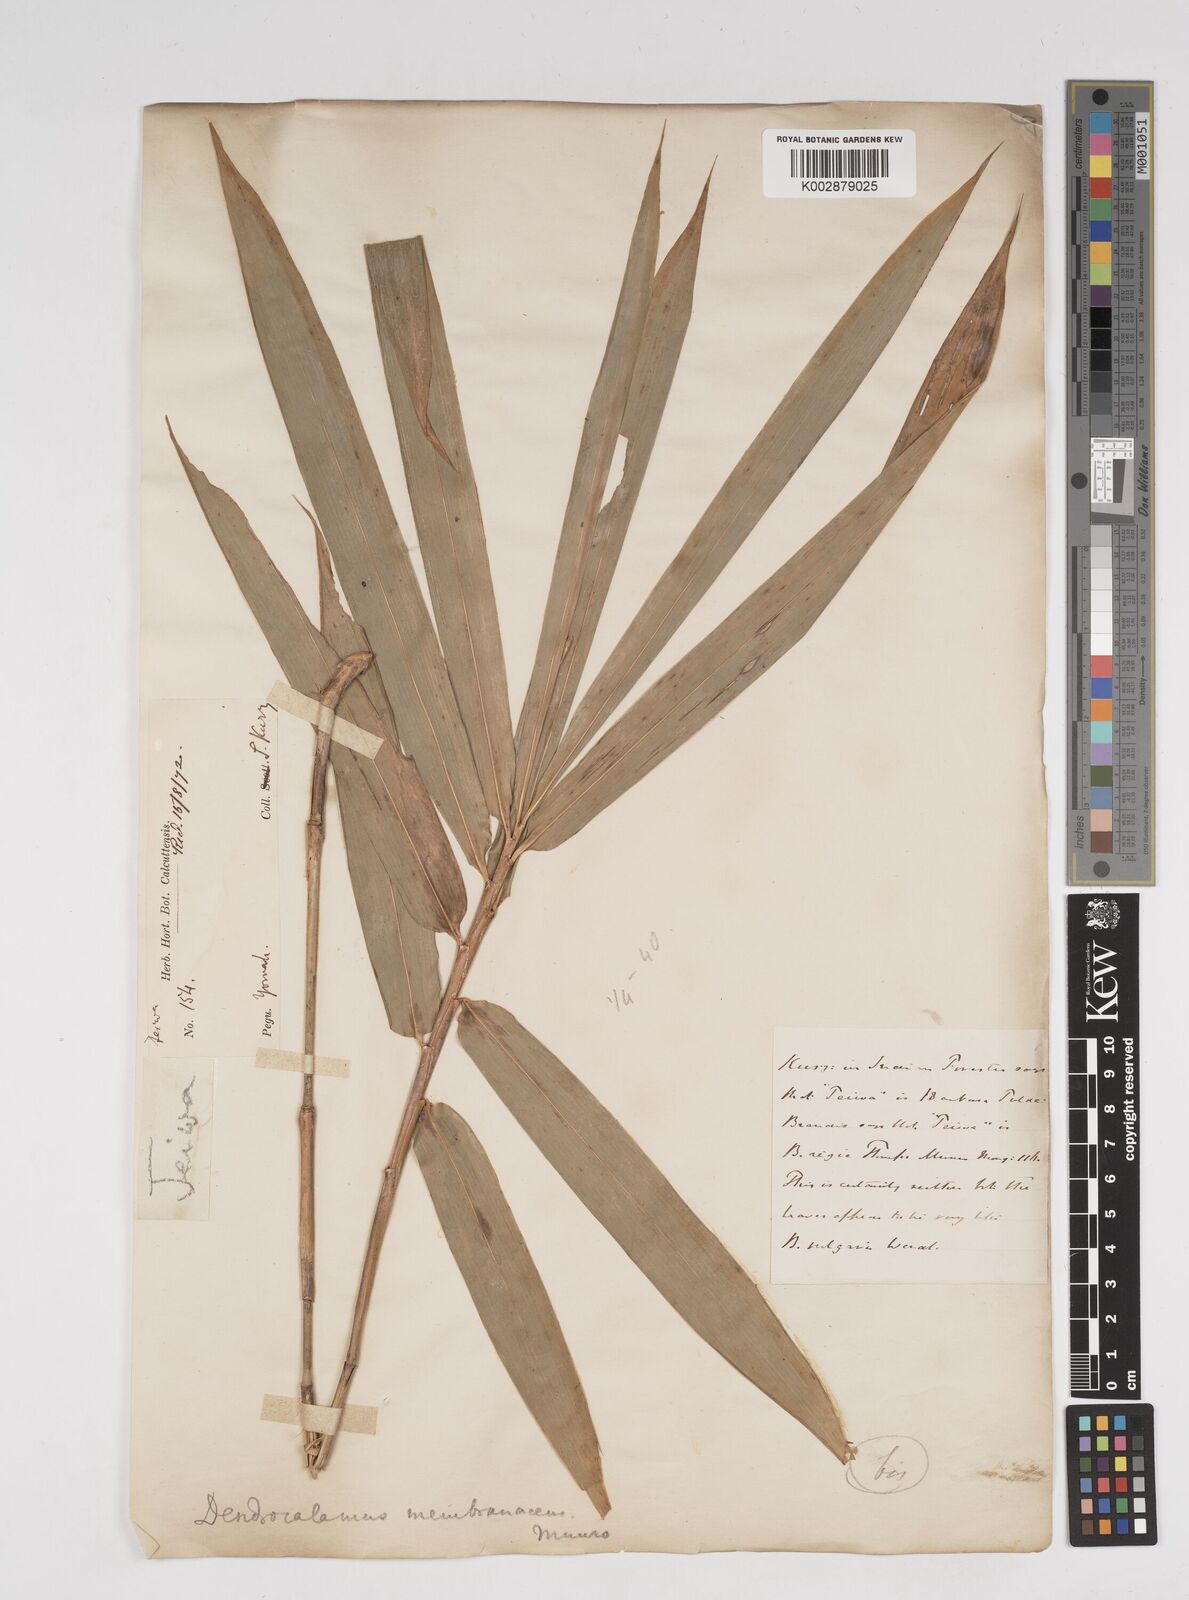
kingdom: Plantae
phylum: Tracheophyta
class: Liliopsida
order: Poales
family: Poaceae
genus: Dendrocalamus
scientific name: Dendrocalamus
